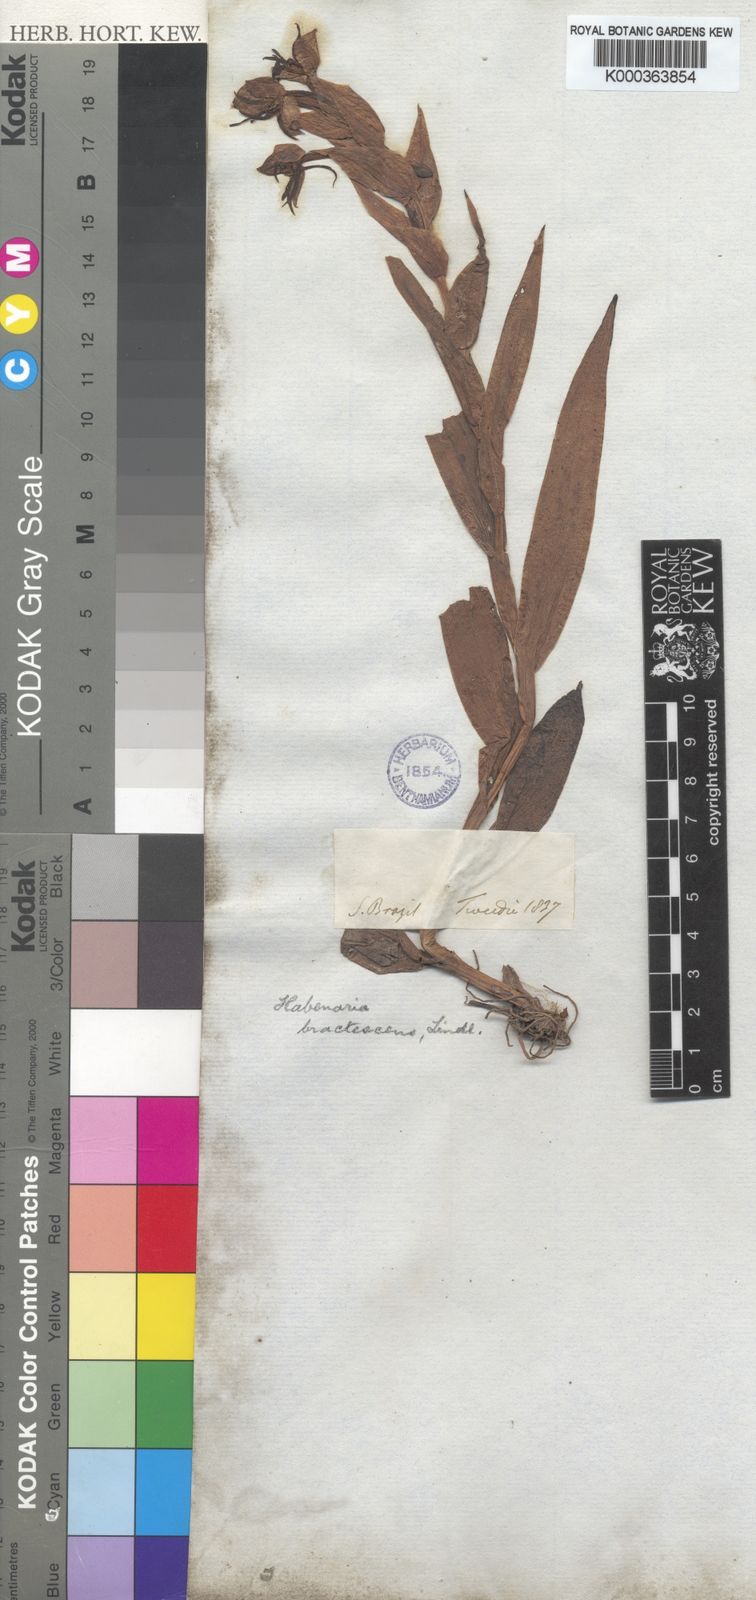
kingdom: Plantae
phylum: Tracheophyta
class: Liliopsida
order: Asparagales
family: Orchidaceae
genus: Habenaria
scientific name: Habenaria bractescens
